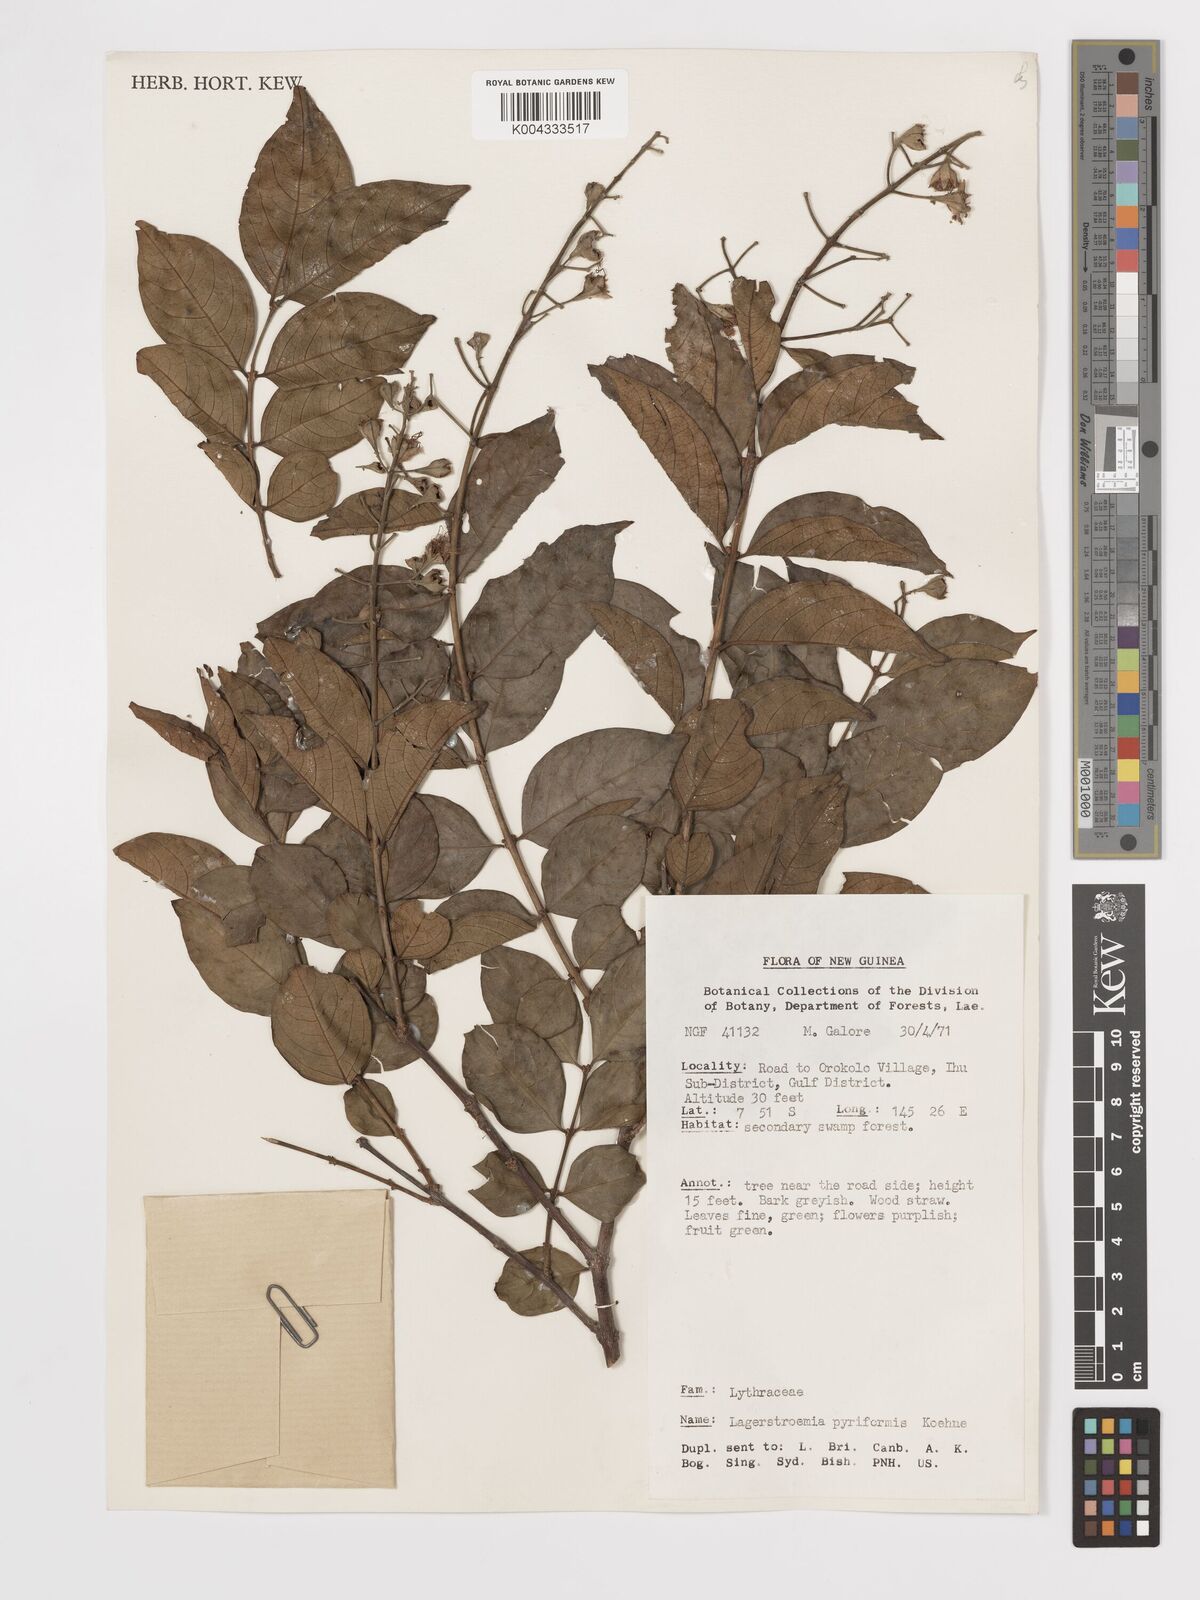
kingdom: Plantae
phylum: Tracheophyta
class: Magnoliopsida
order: Myrtales
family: Lythraceae
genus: Lagerstroemia
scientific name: Lagerstroemia celebica
